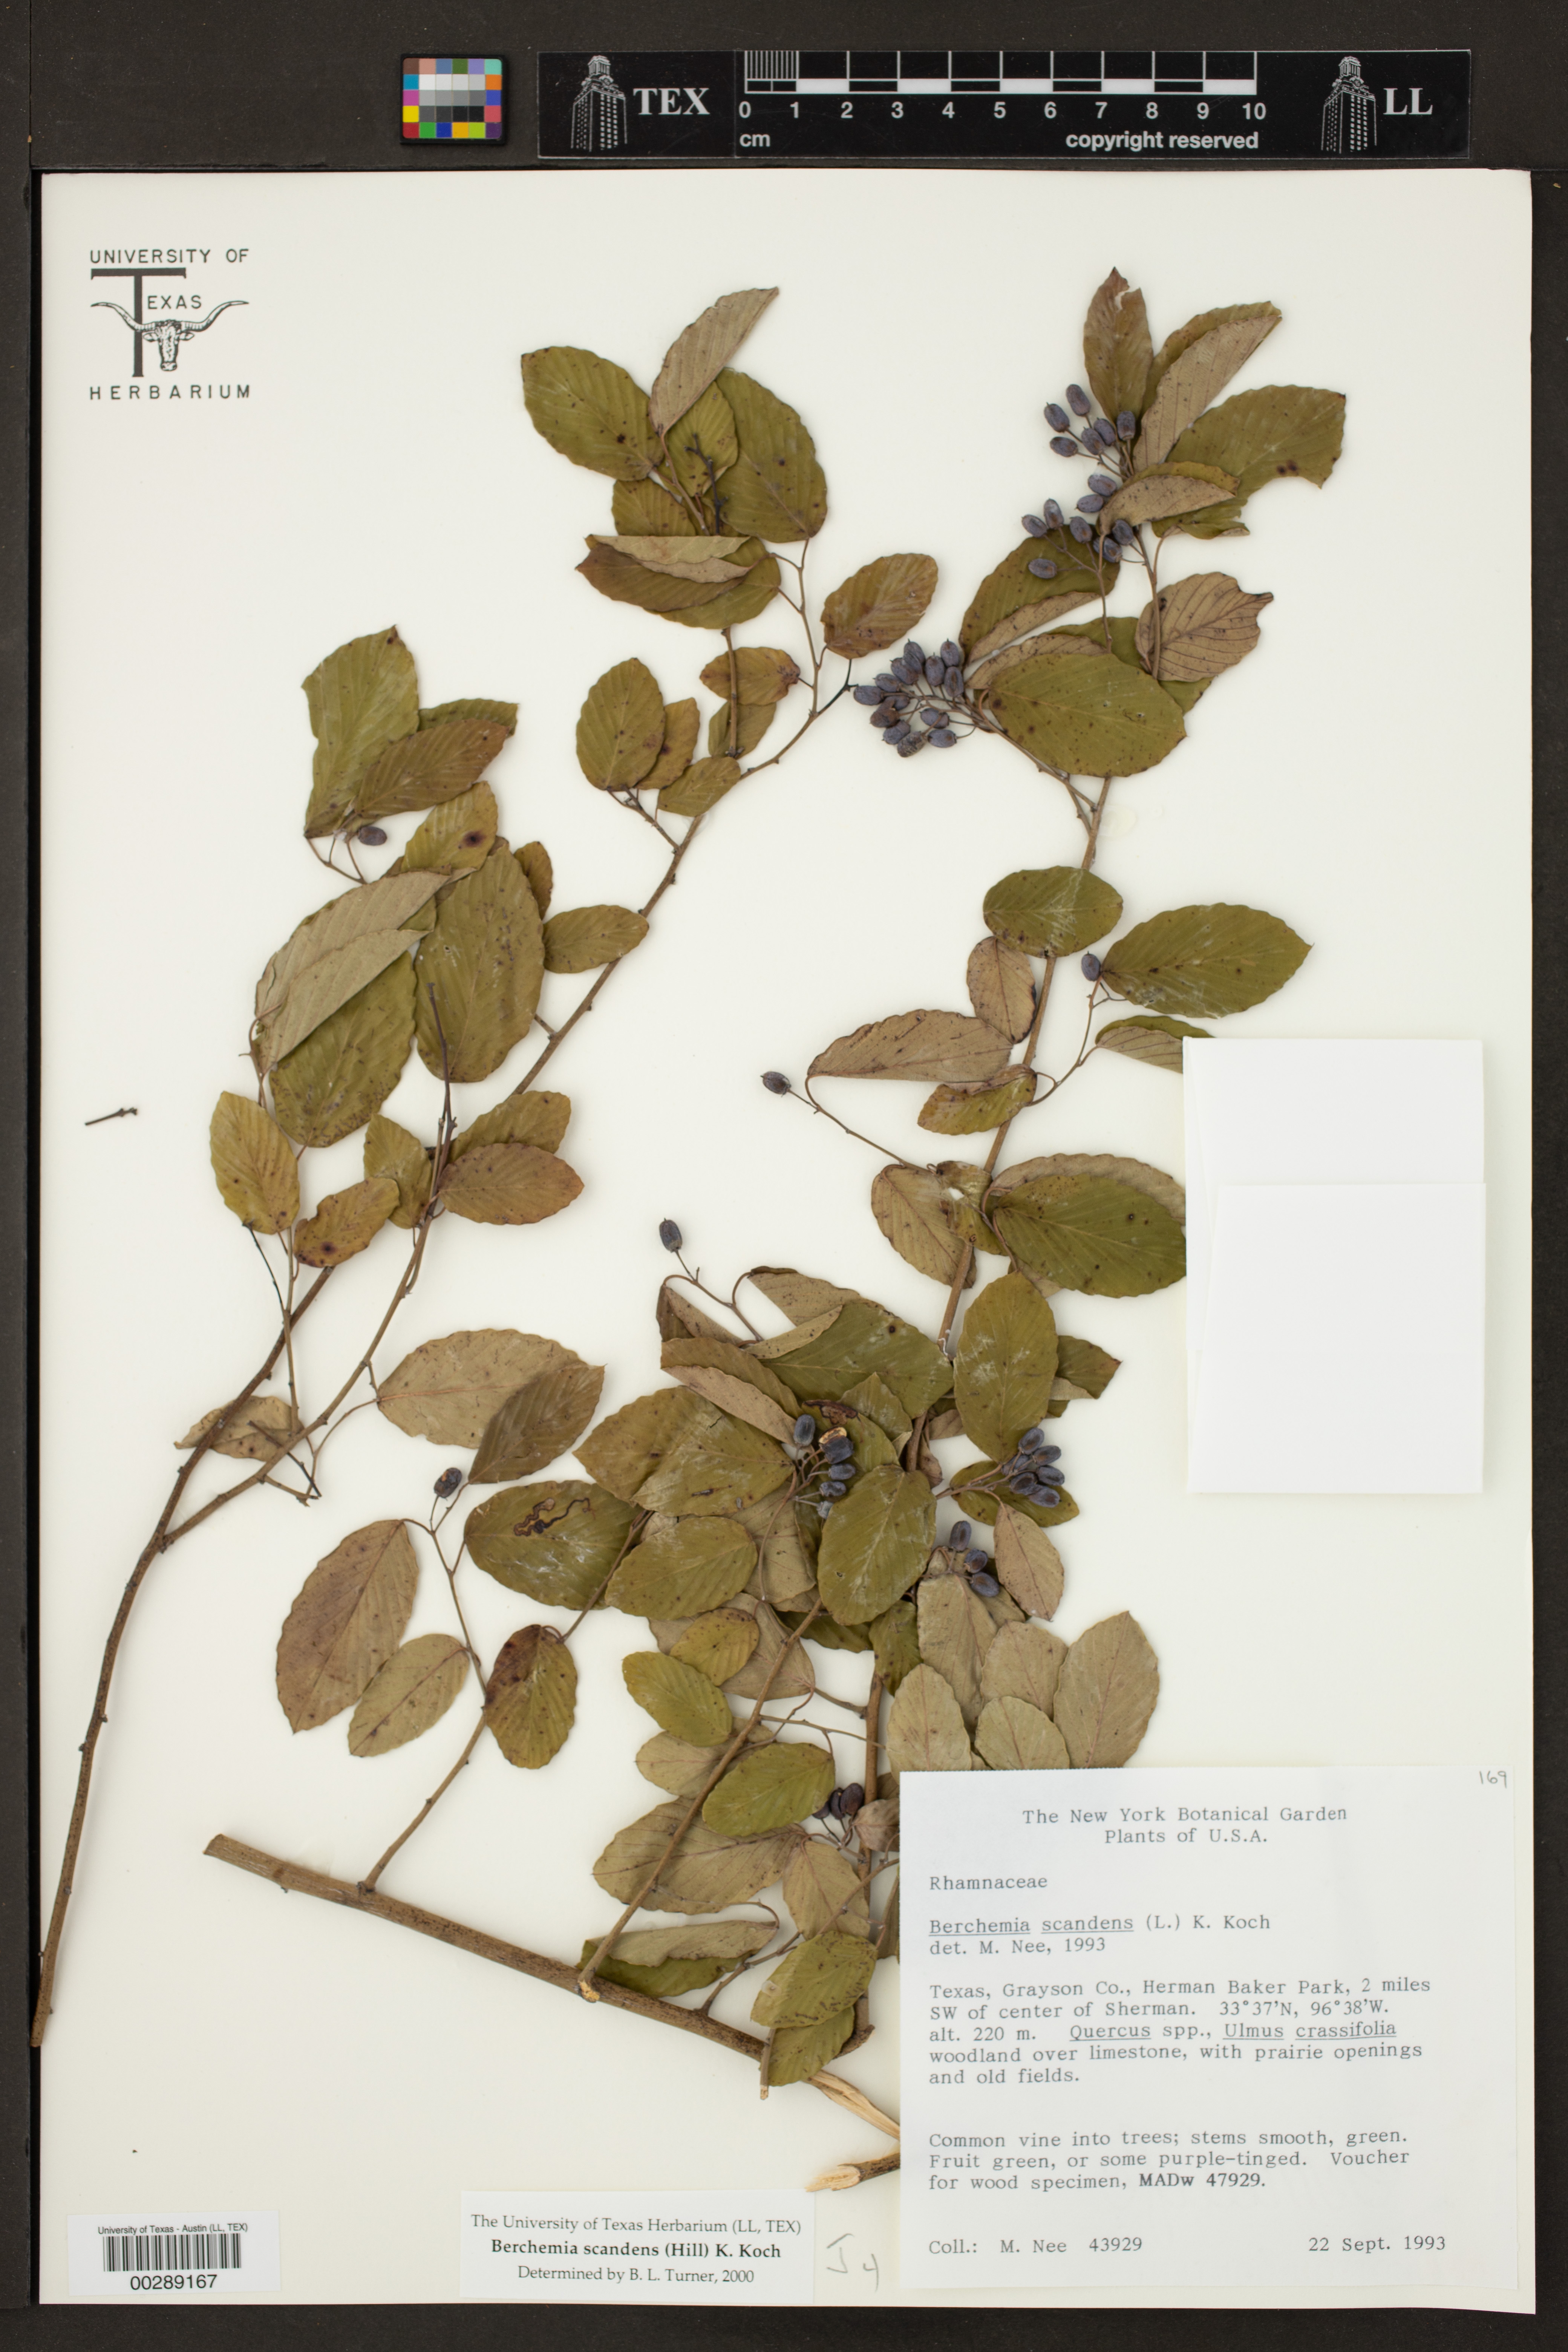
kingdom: Plantae
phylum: Tracheophyta
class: Magnoliopsida
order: Rosales
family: Rhamnaceae
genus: Berchemia
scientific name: Berchemia scandens
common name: Supplejack
